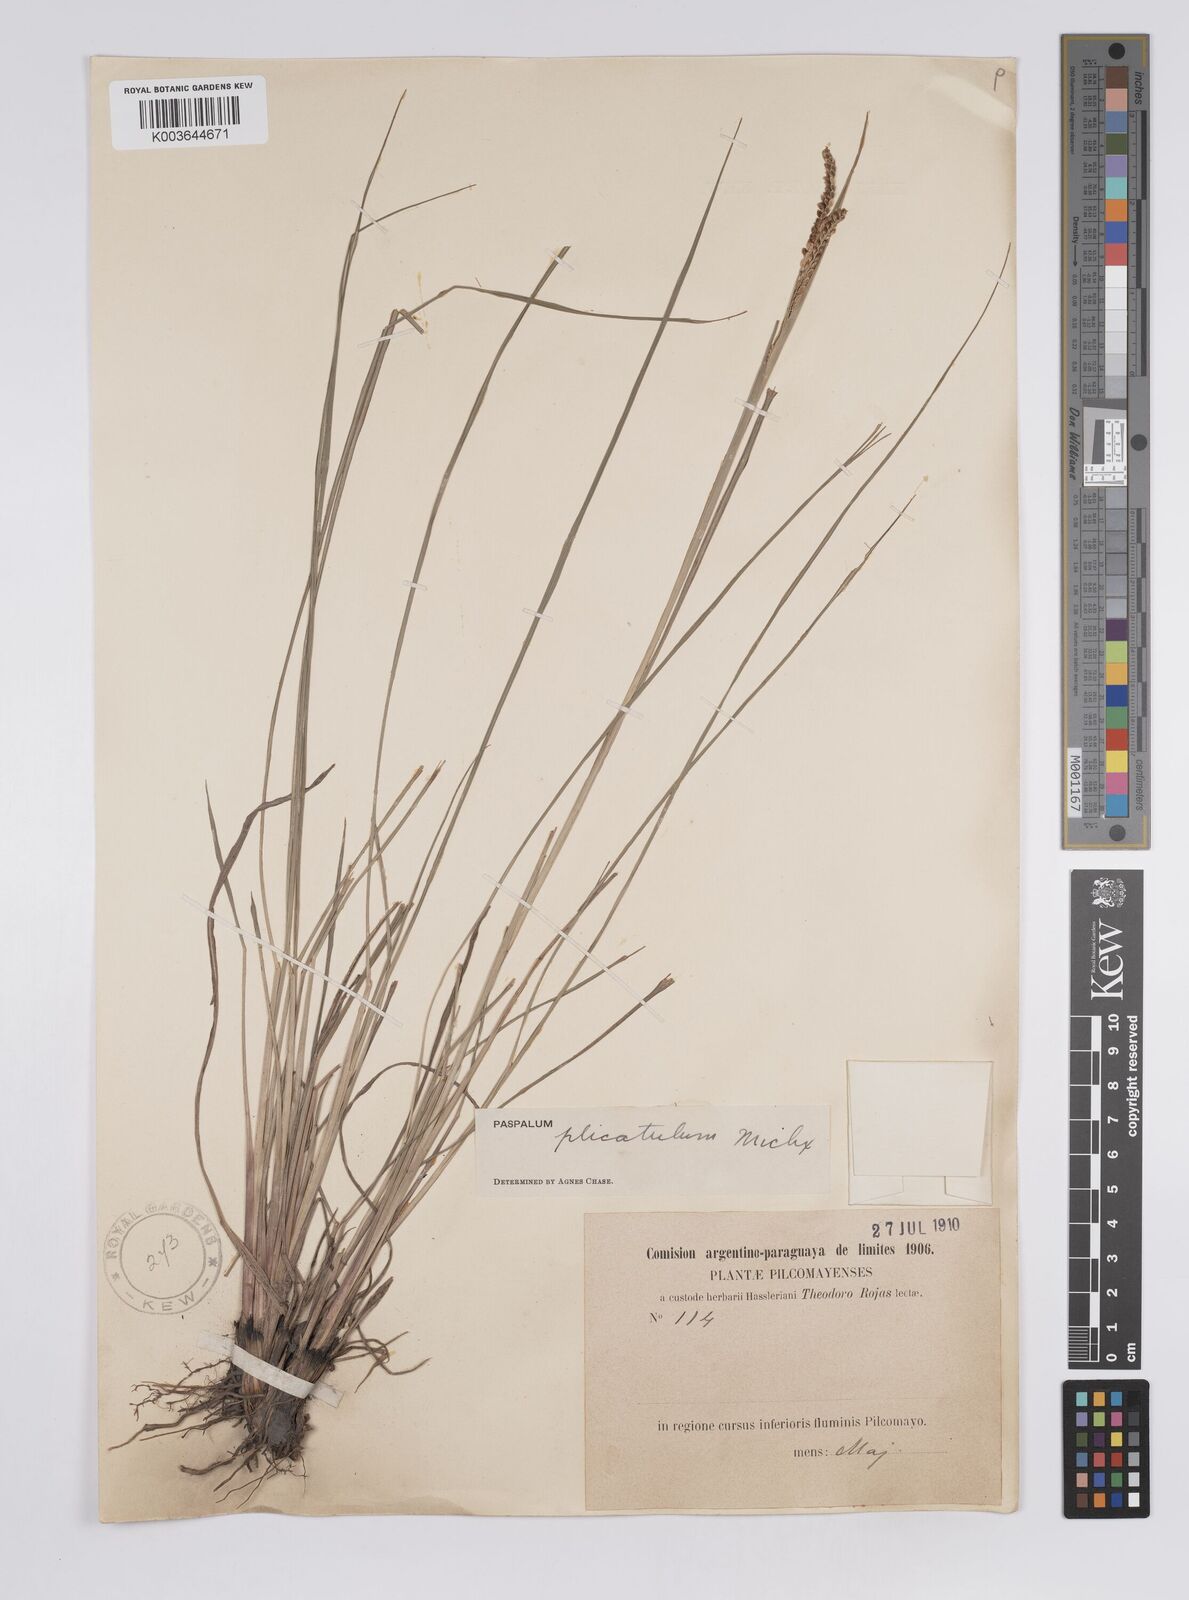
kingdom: Plantae
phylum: Tracheophyta
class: Liliopsida
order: Poales
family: Poaceae
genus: Paspalum
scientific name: Paspalum plicatulum
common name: Top paspalum
